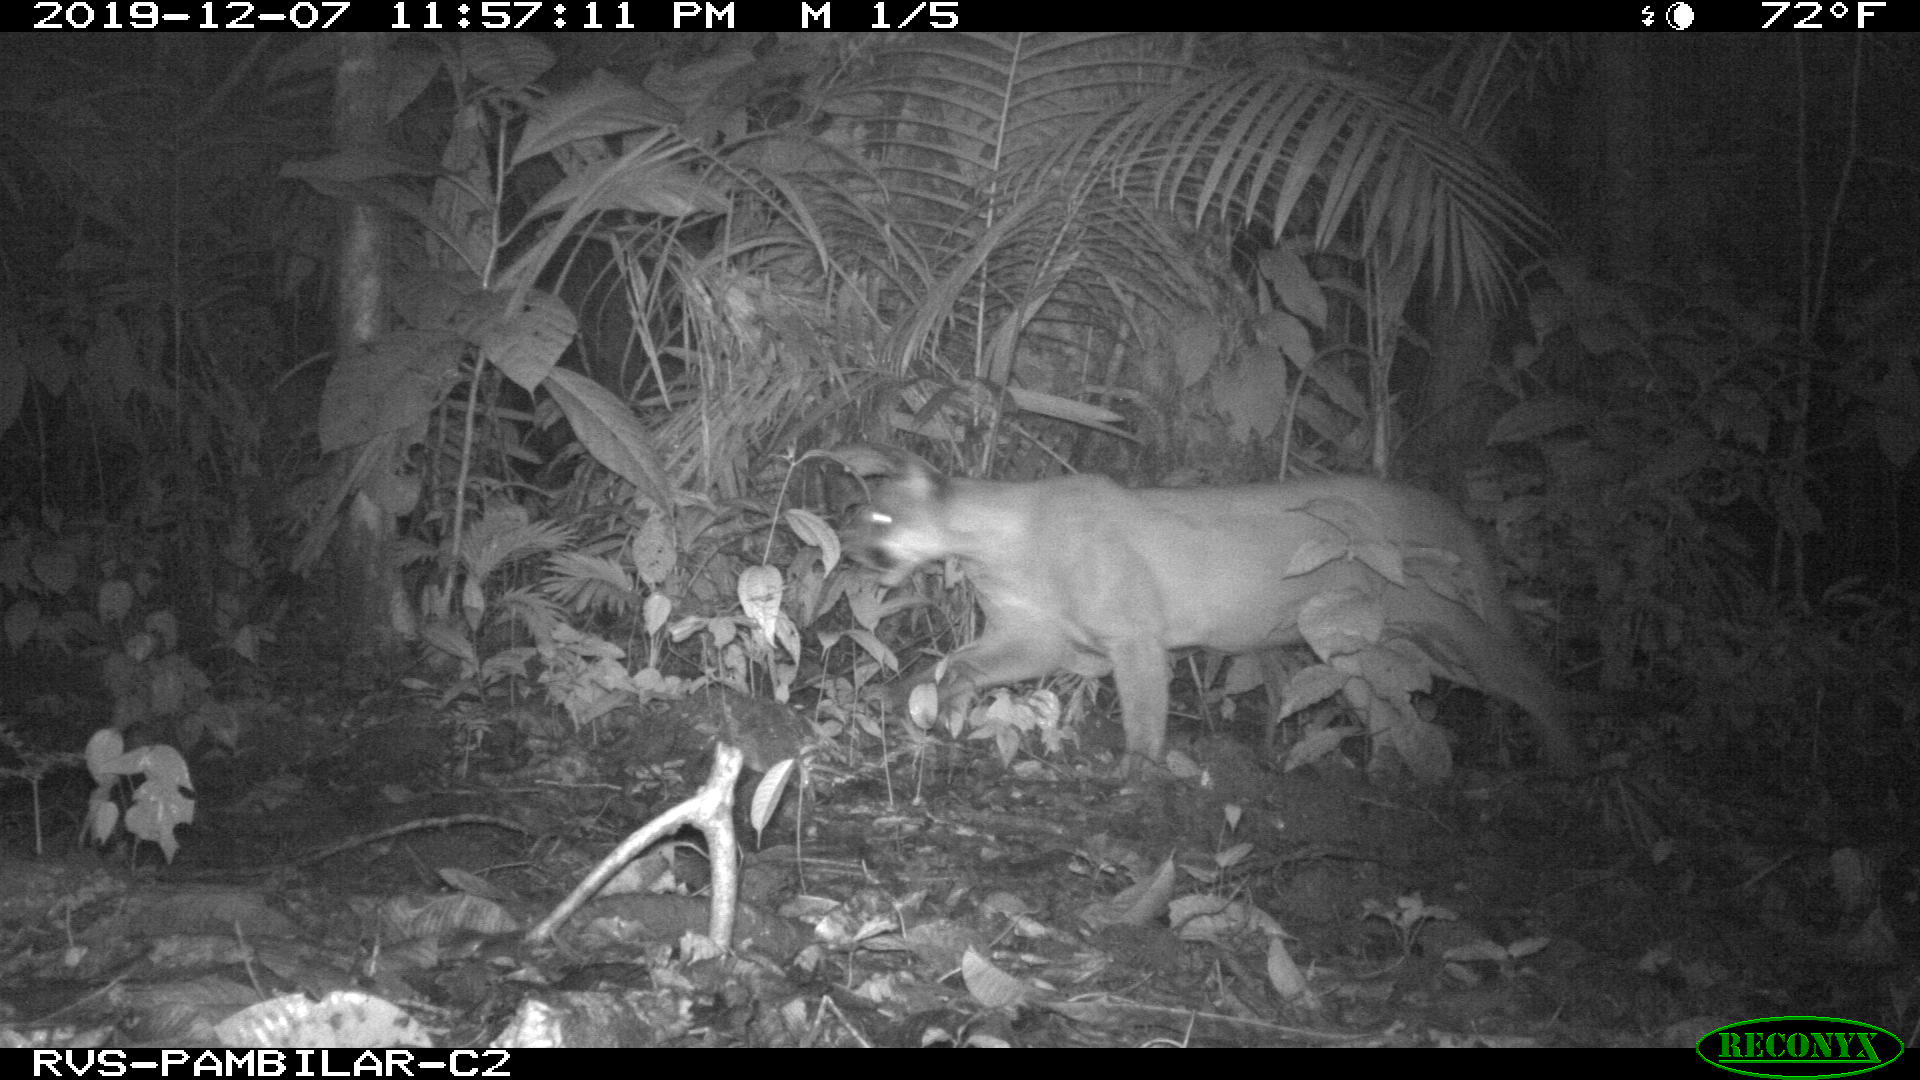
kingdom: Animalia
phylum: Chordata
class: Mammalia
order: Carnivora
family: Felidae
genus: Puma
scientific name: Puma concolor
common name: Puma
